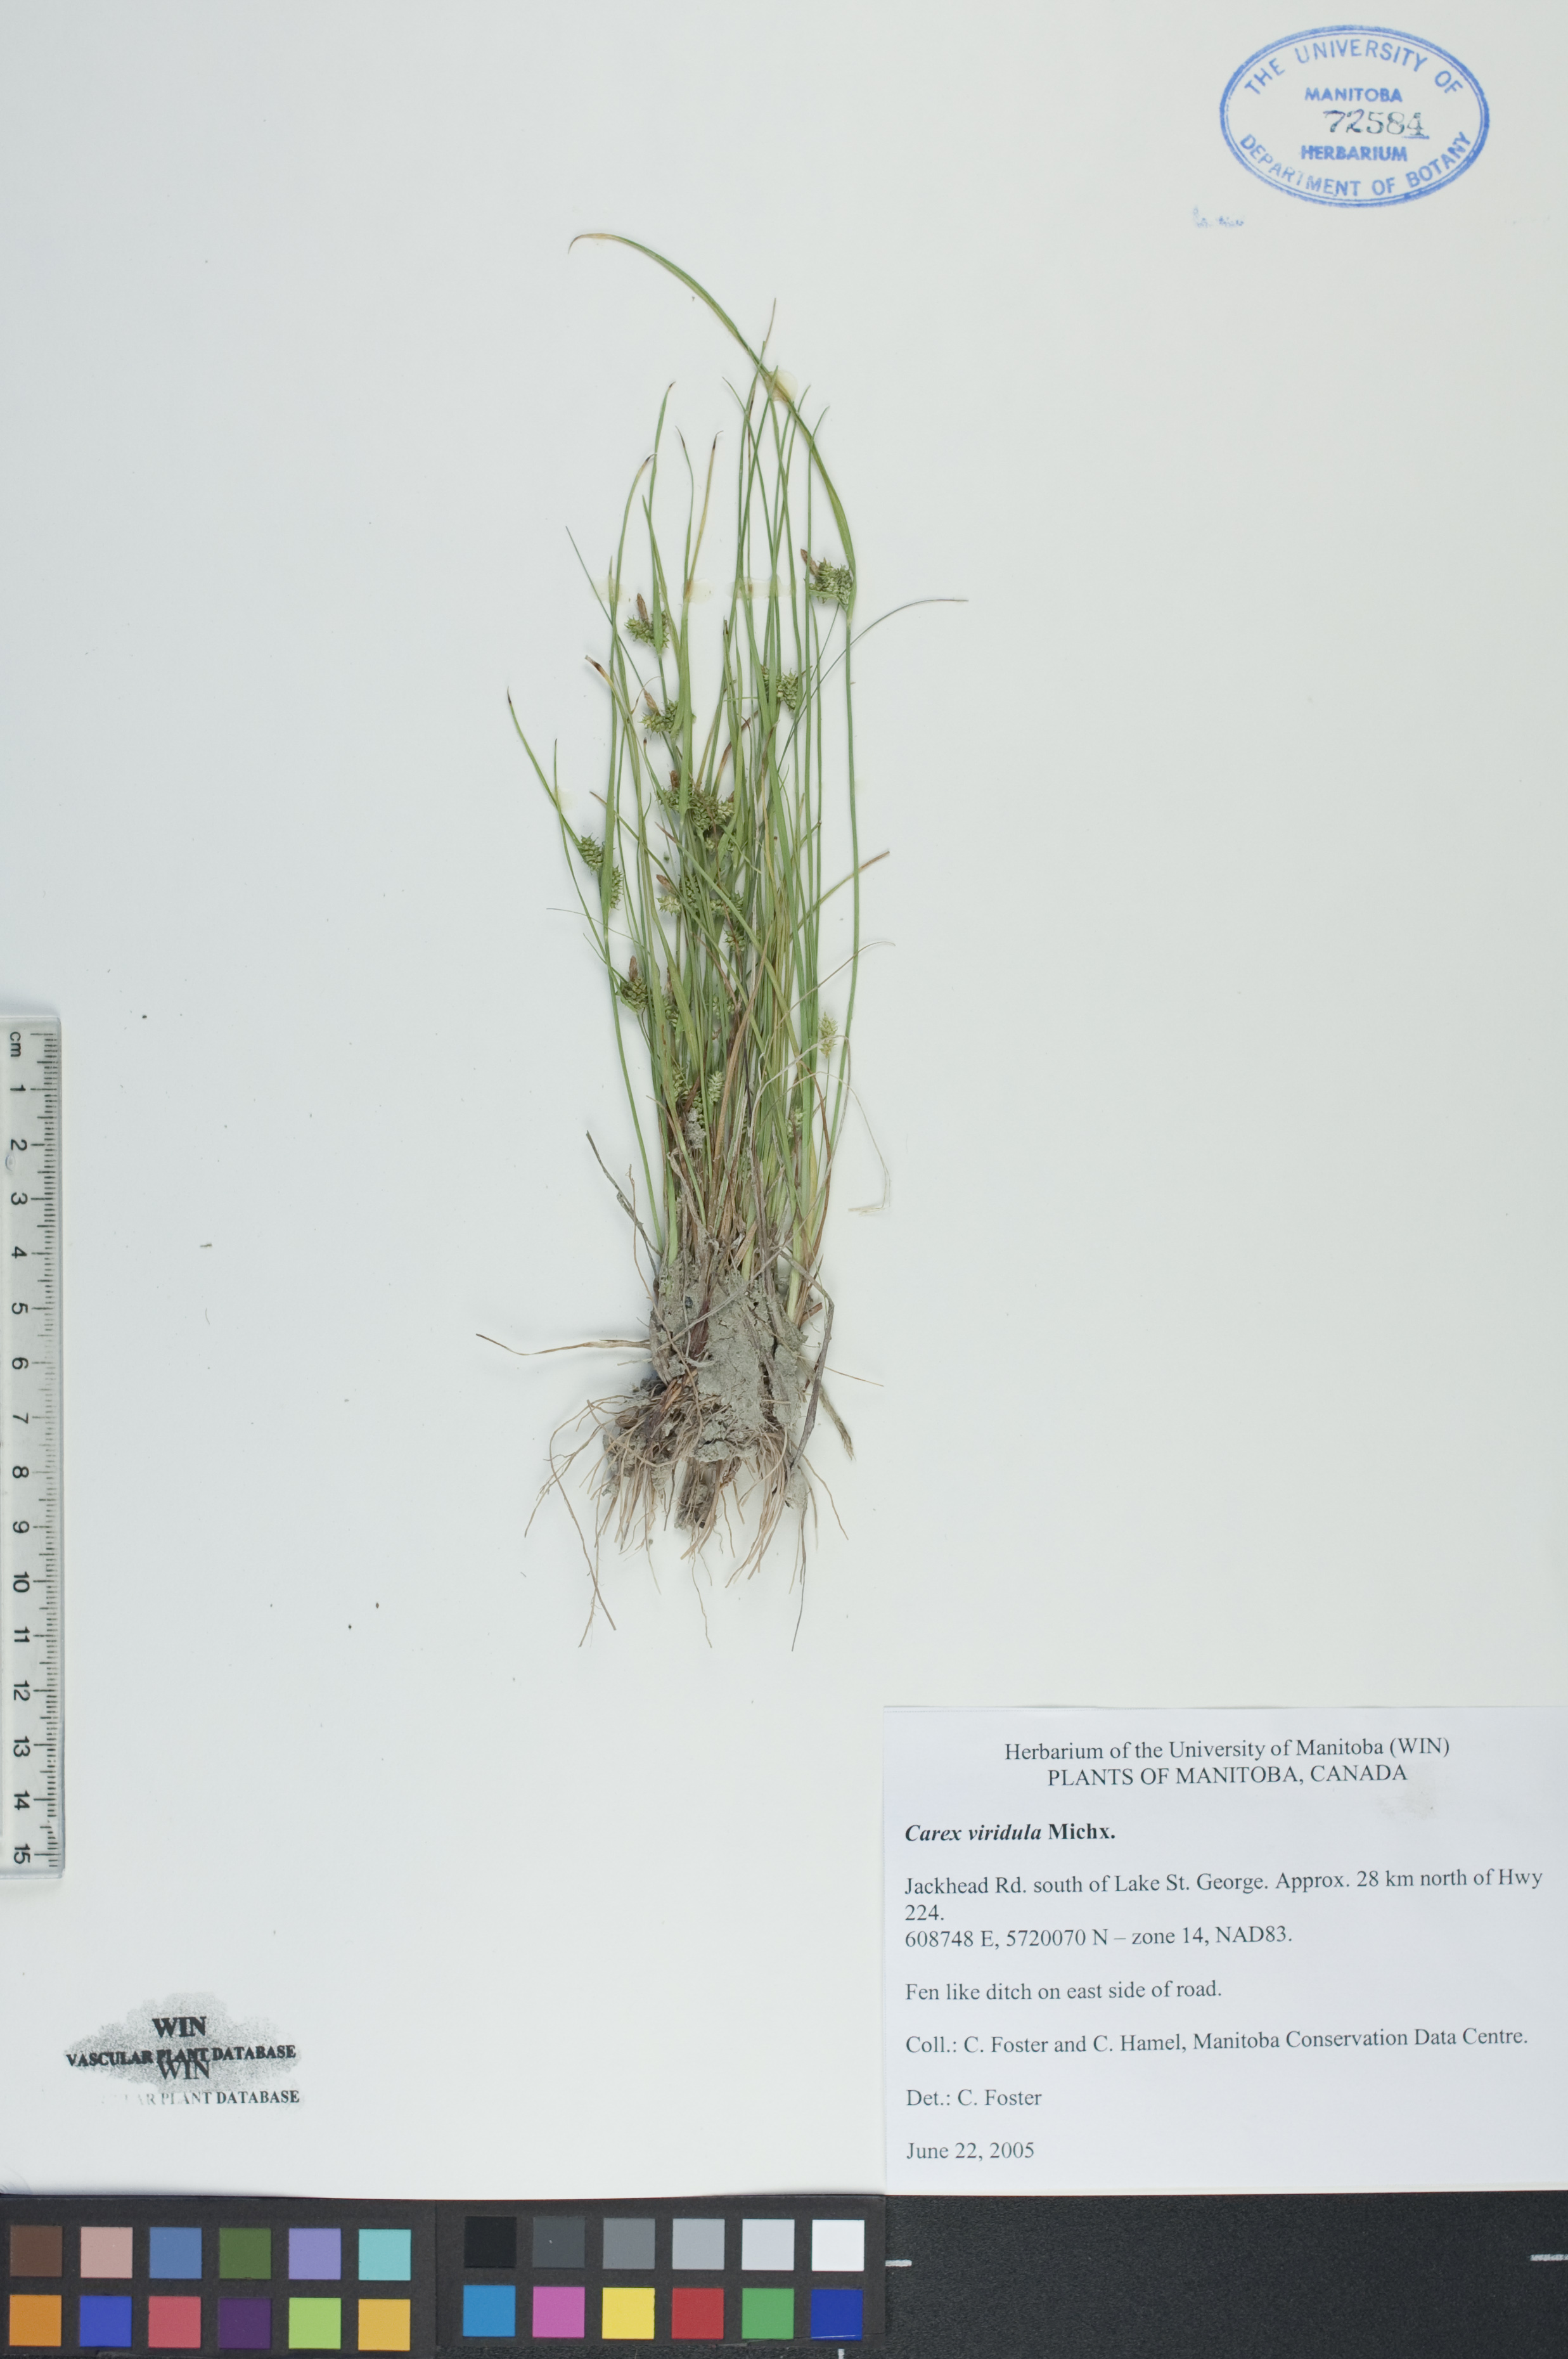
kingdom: Plantae
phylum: Tracheophyta
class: Liliopsida
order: Poales
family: Cyperaceae
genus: Carex
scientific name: Carex oederi
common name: Common & small-fruited yellow-sedge
